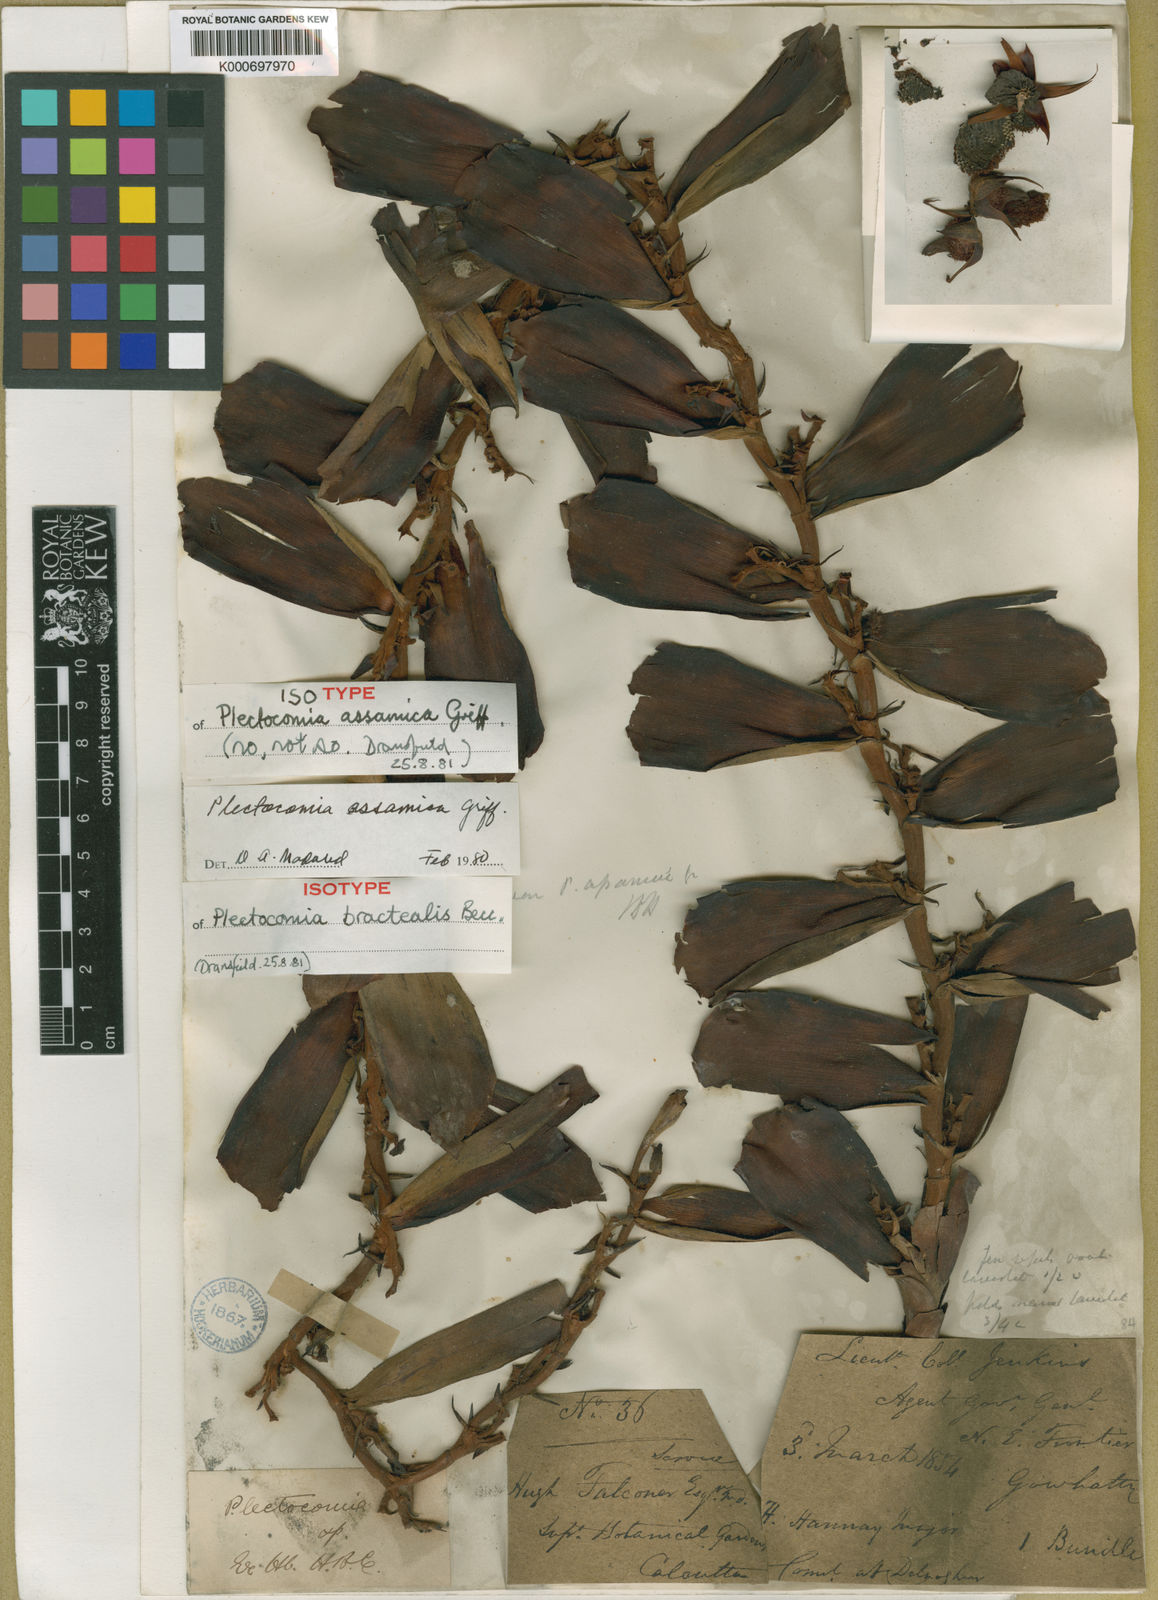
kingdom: Plantae
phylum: Tracheophyta
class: Liliopsida
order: Arecales
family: Arecaceae
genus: Plectocomia
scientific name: Plectocomia assamica
